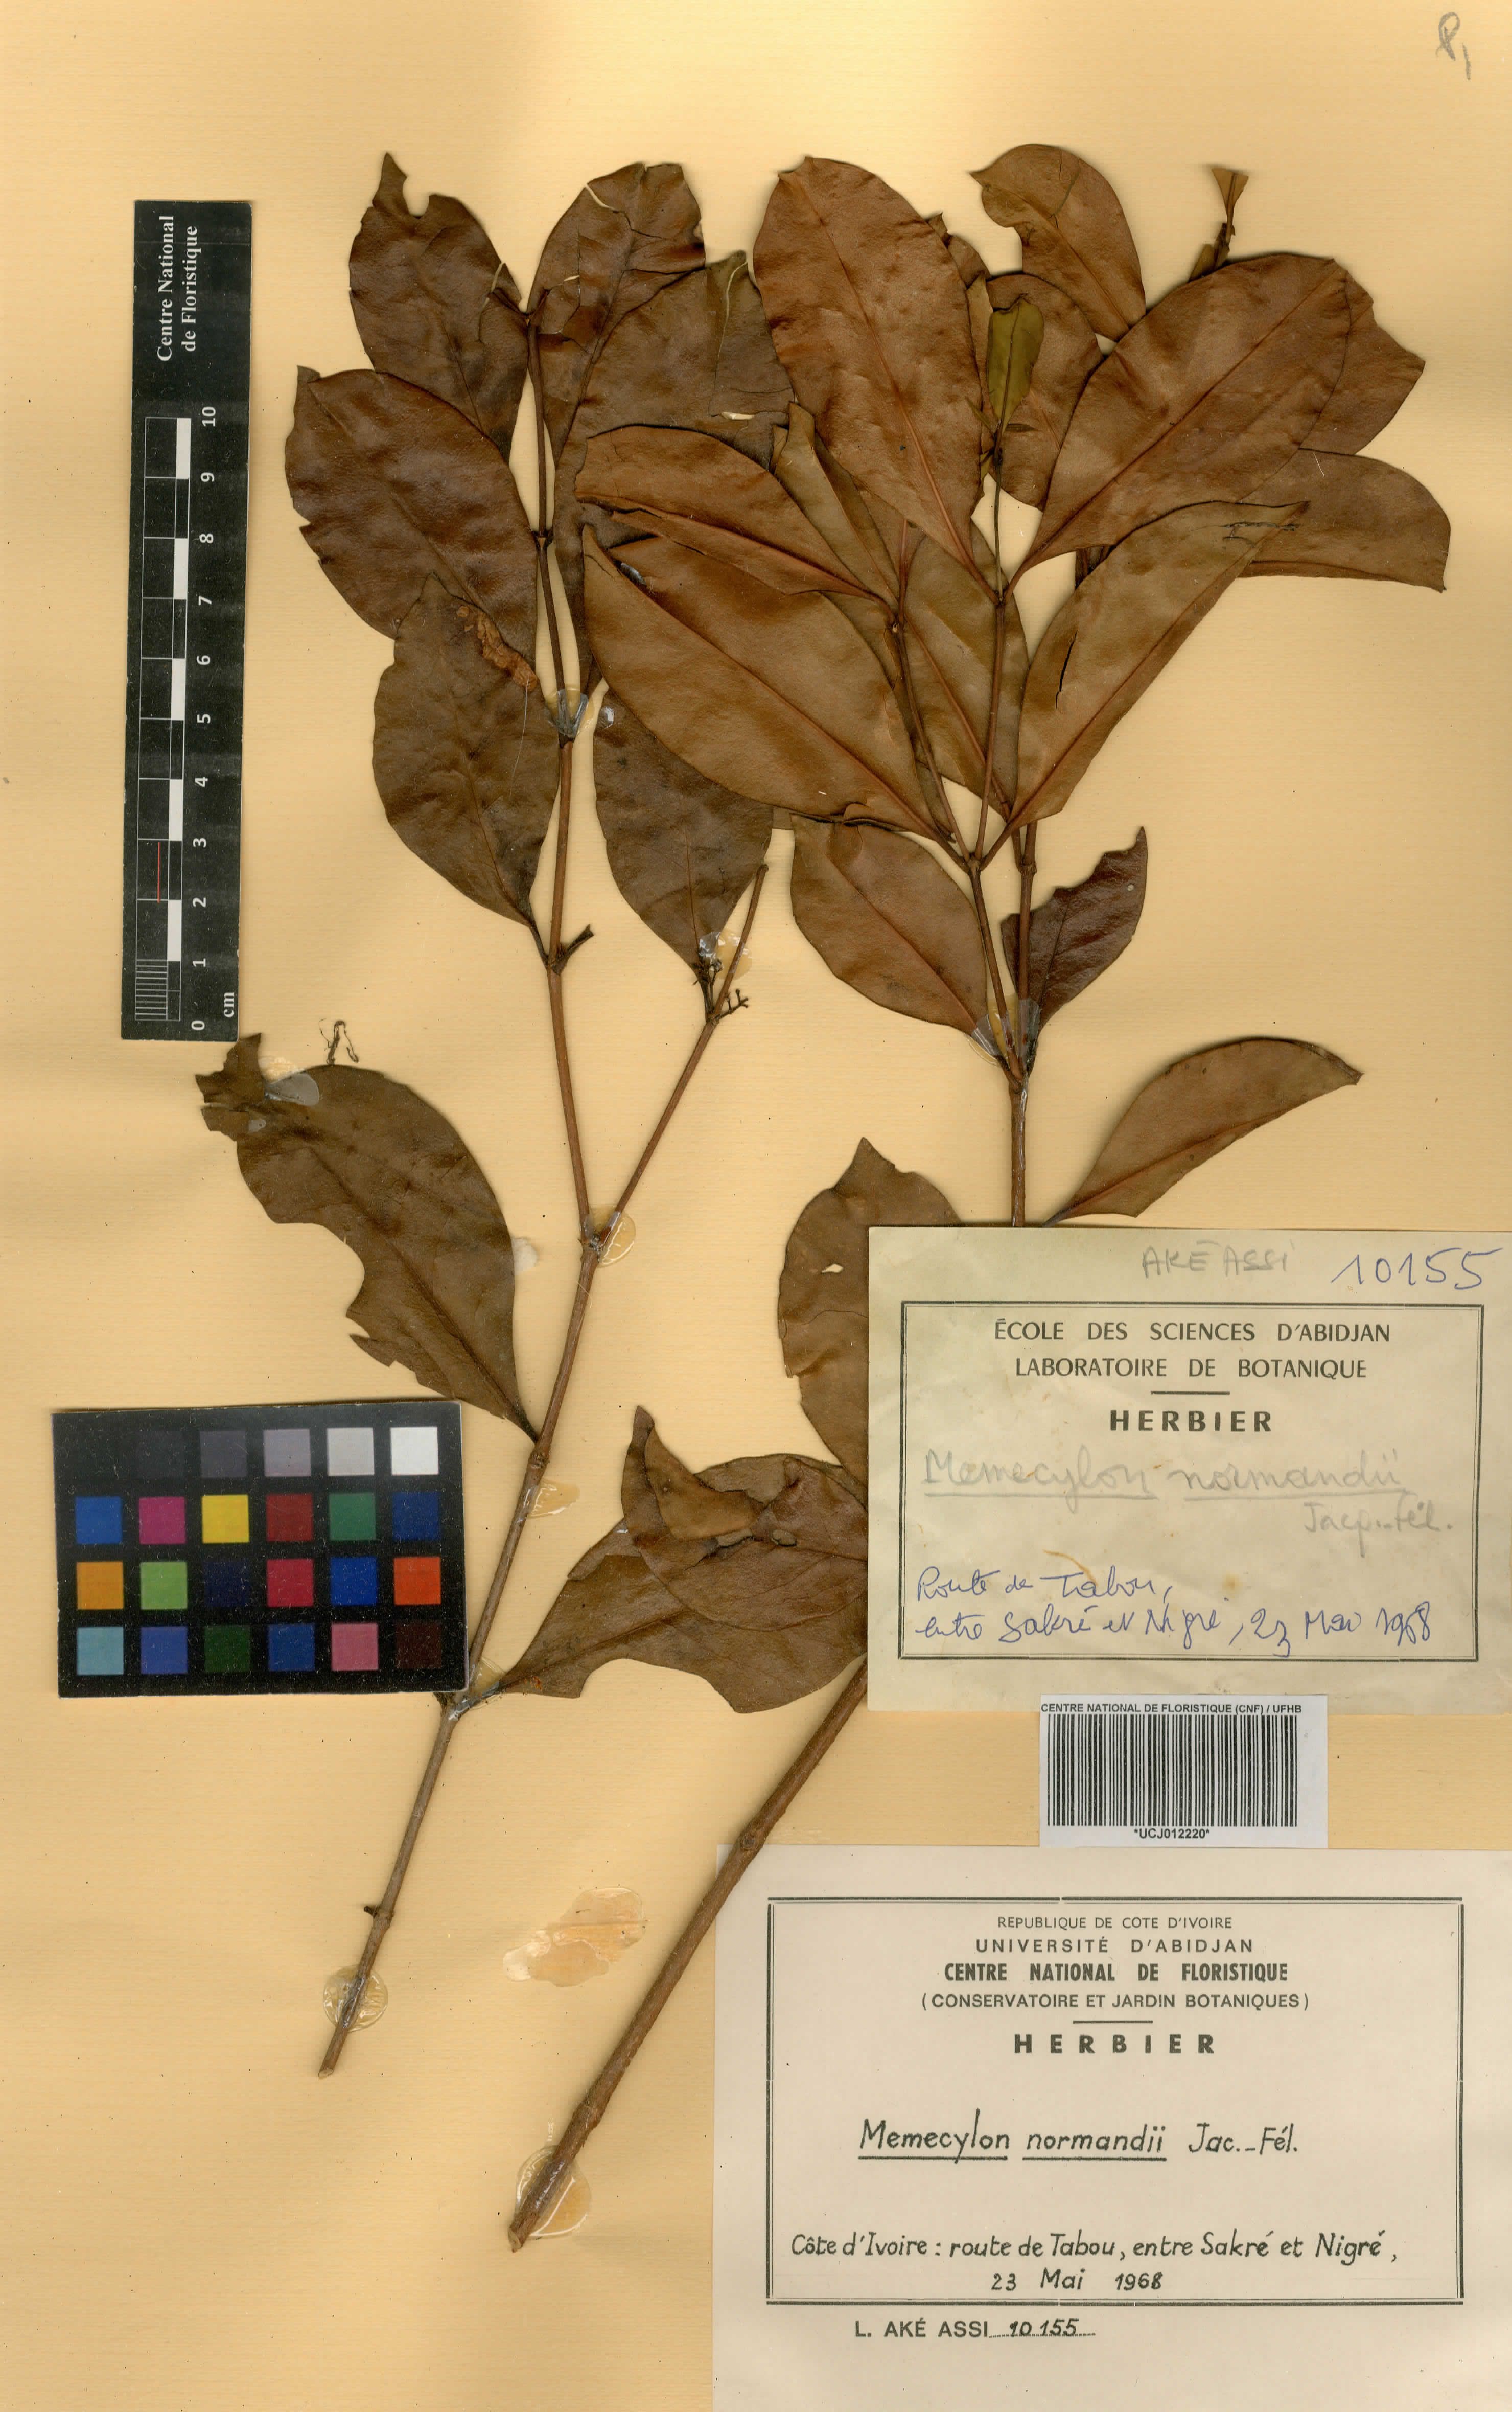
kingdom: Plantae
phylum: Tracheophyta
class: Magnoliopsida
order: Myrtales
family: Melastomataceae
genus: Memecylon
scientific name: Memecylon normandii
